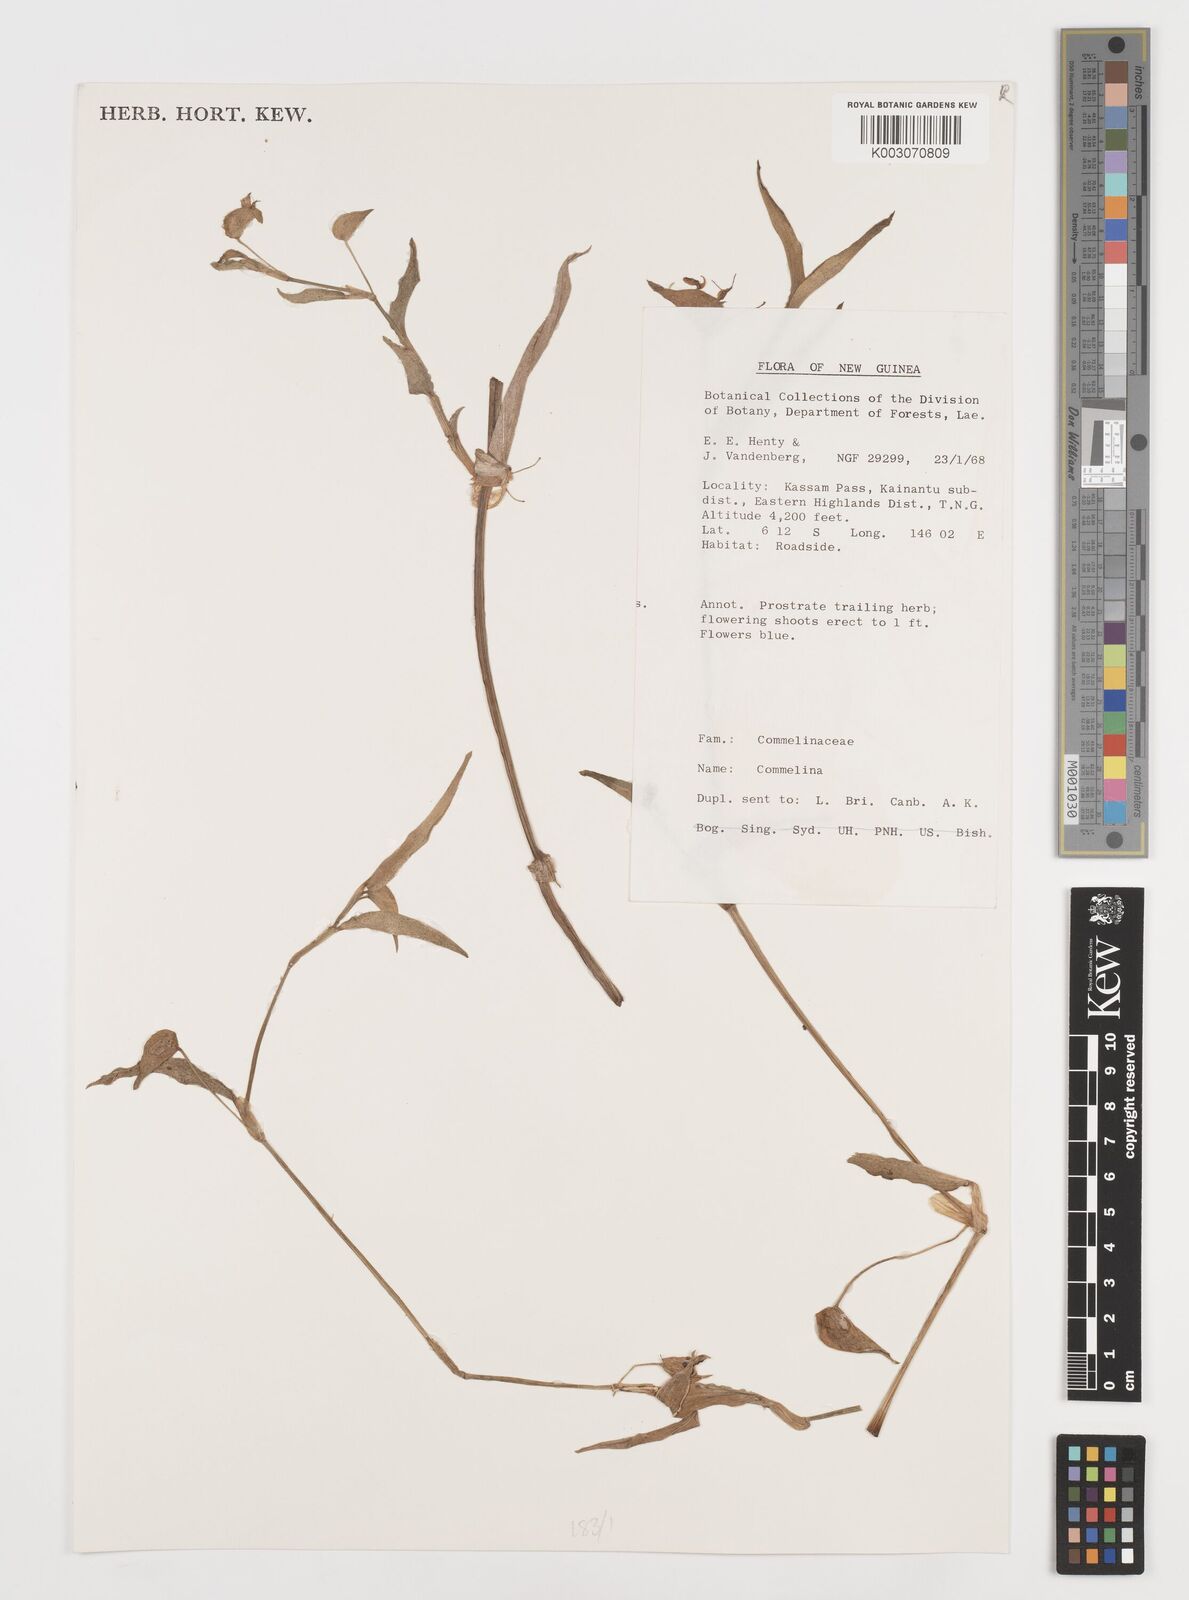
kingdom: Plantae
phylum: Tracheophyta
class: Liliopsida
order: Commelinales
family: Commelinaceae
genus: Commelina
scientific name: Commelina
